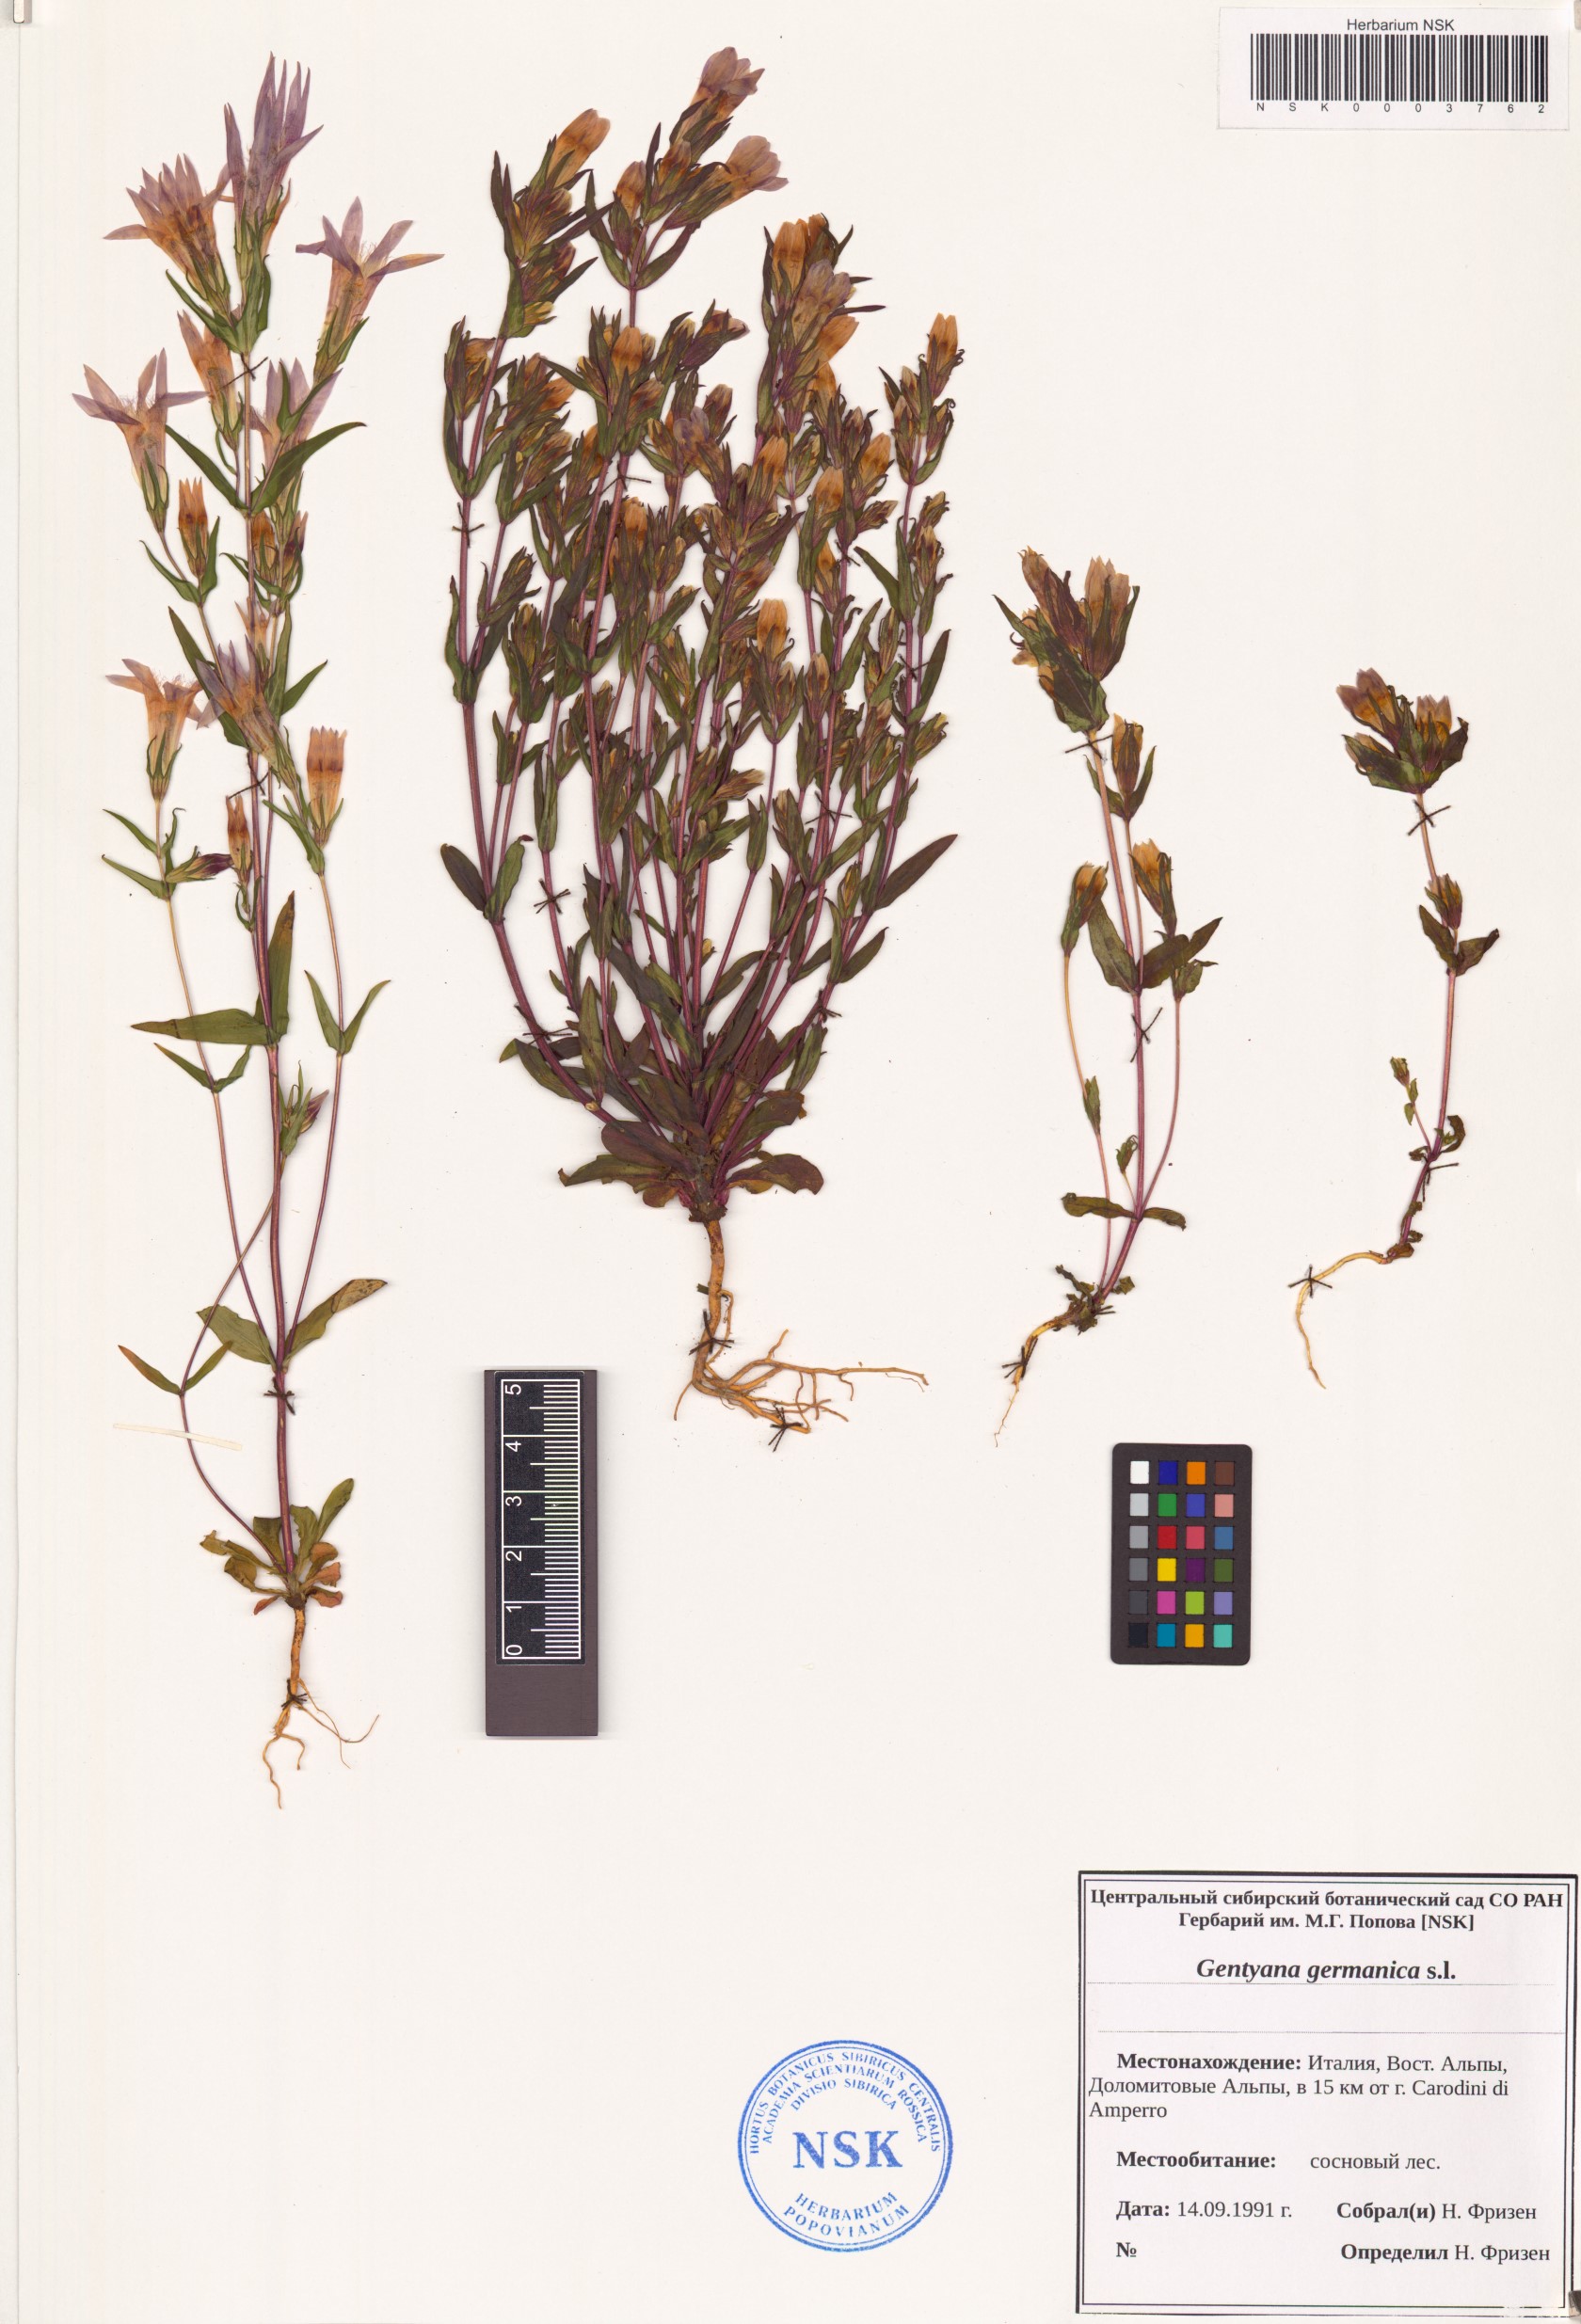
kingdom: Plantae
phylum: Tracheophyta
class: Magnoliopsida
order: Gentianales
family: Gentianaceae
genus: Gentianella
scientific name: Gentianella germanica
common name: Chiltern-gentian
